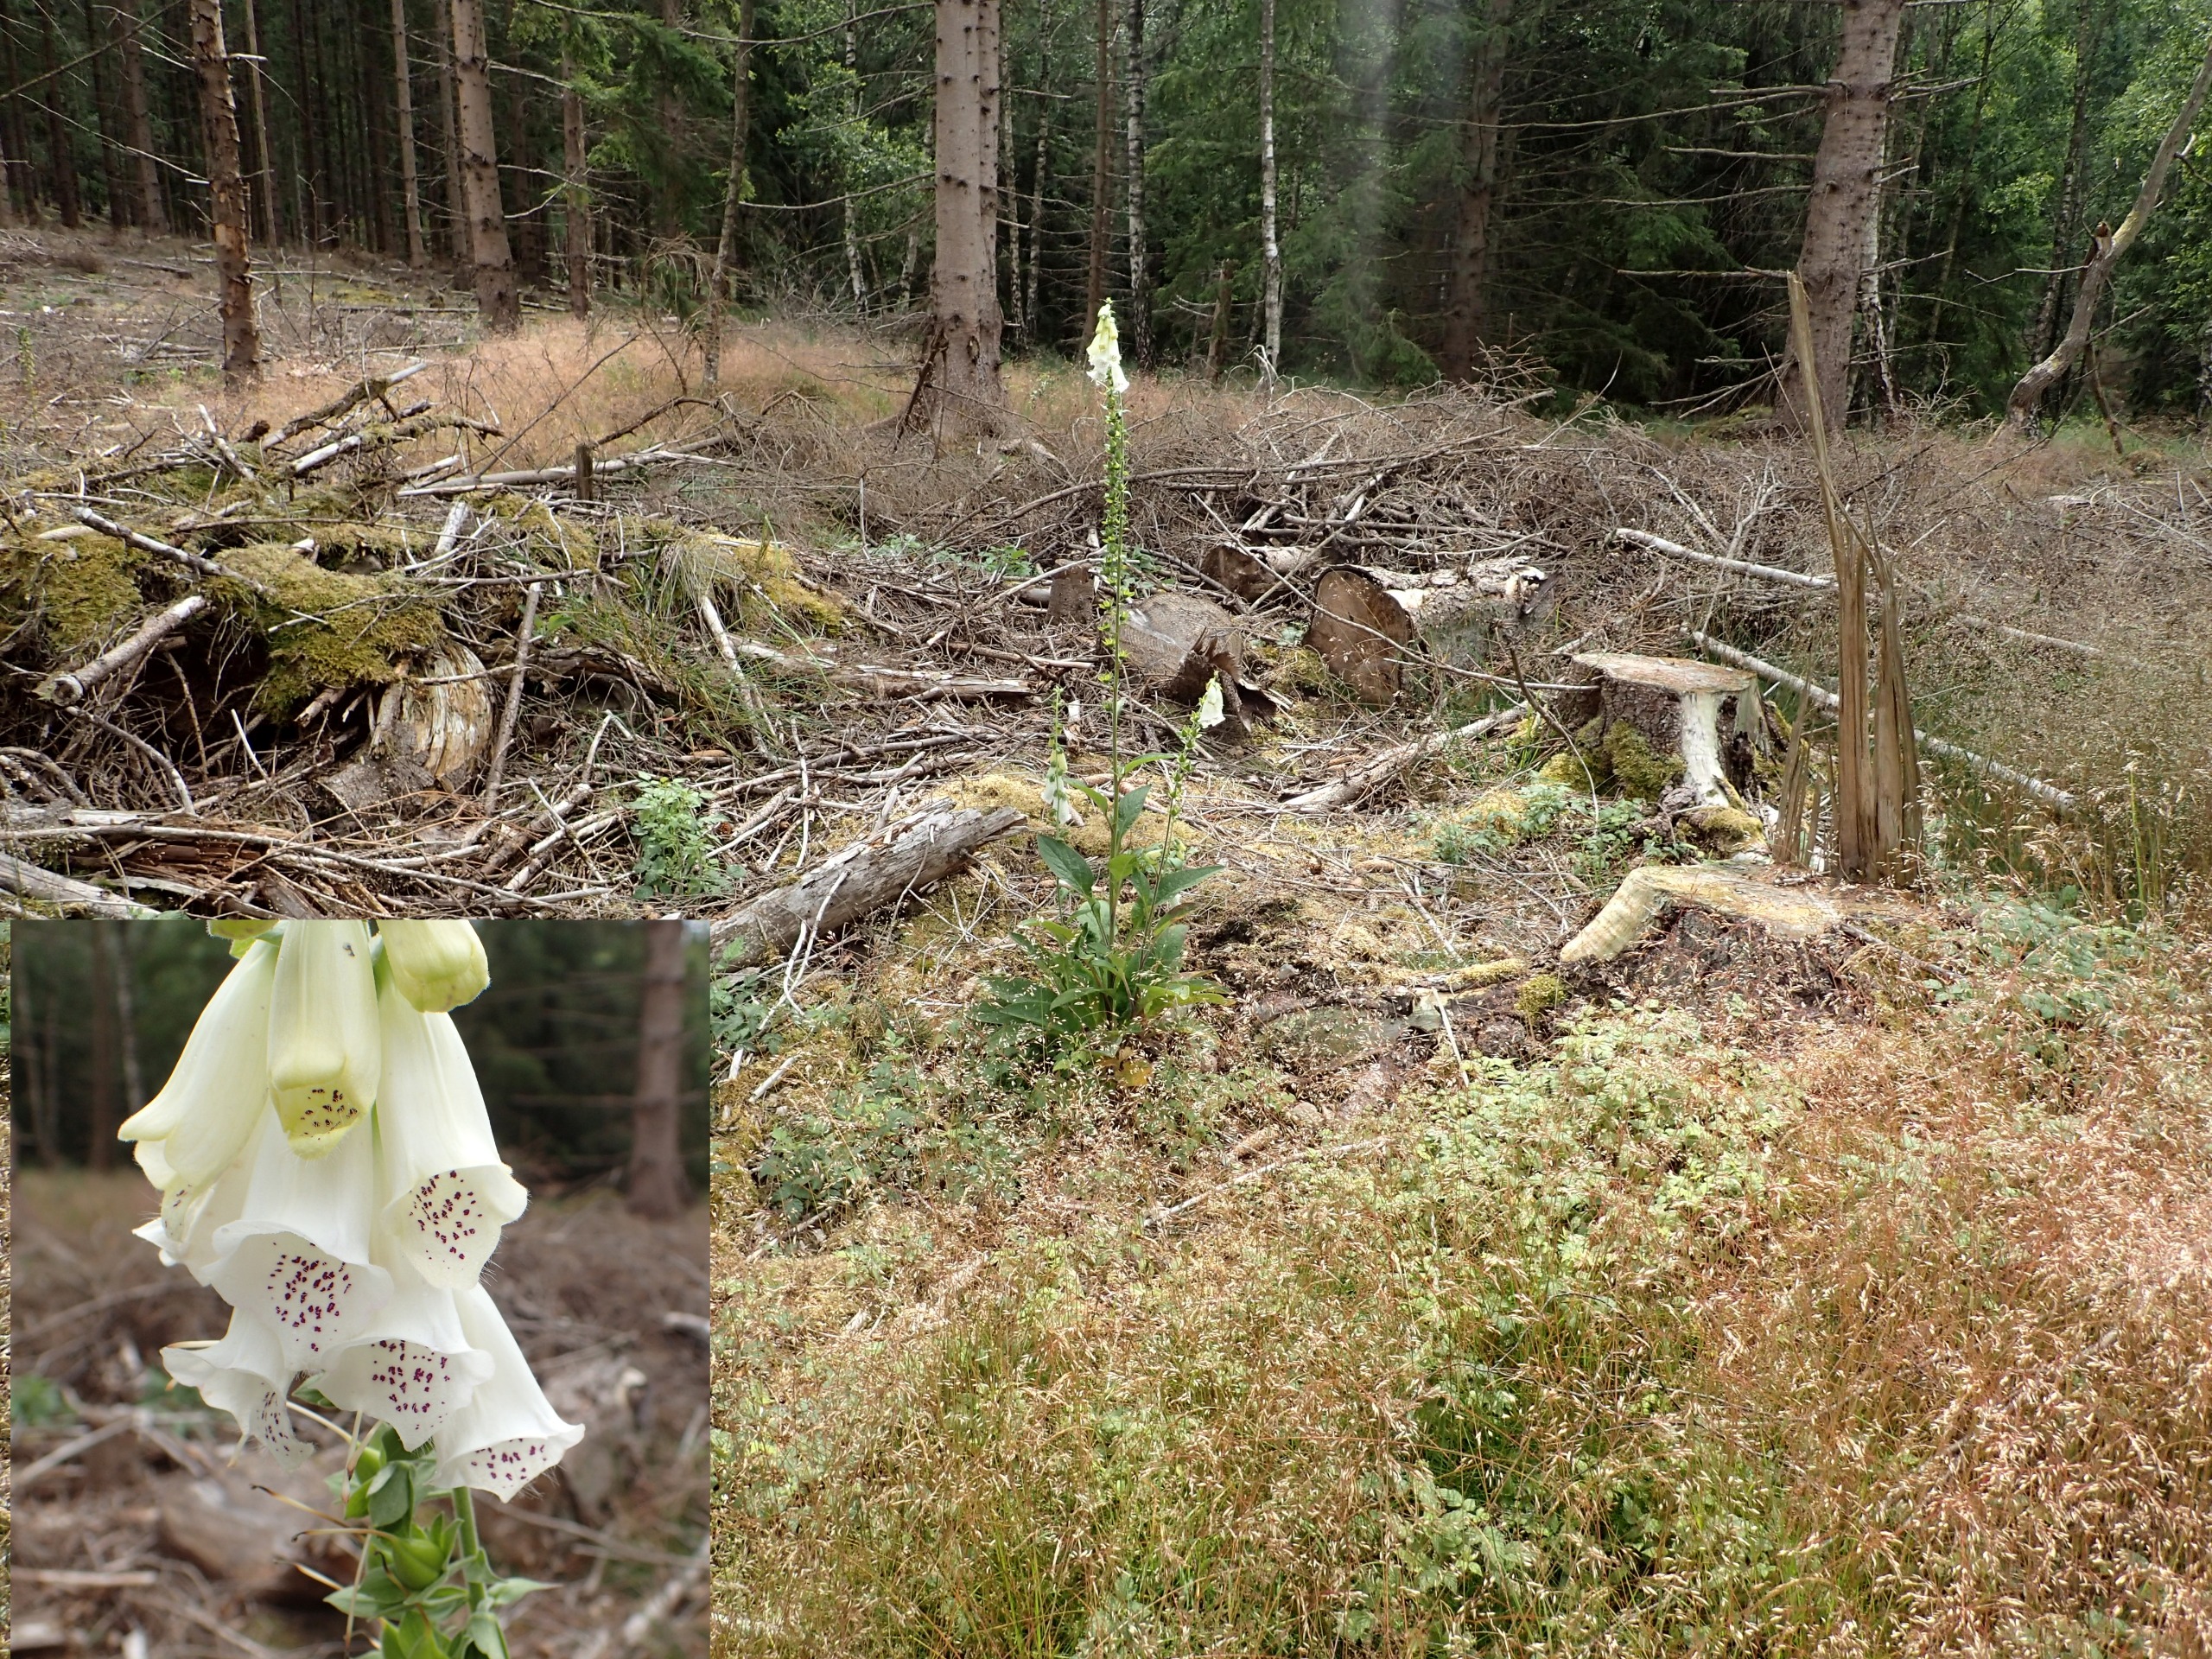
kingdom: Plantae
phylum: Tracheophyta
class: Magnoliopsida
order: Lamiales
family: Plantaginaceae
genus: Digitalis
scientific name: Digitalis purpurea
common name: Almindelig fingerbøl
